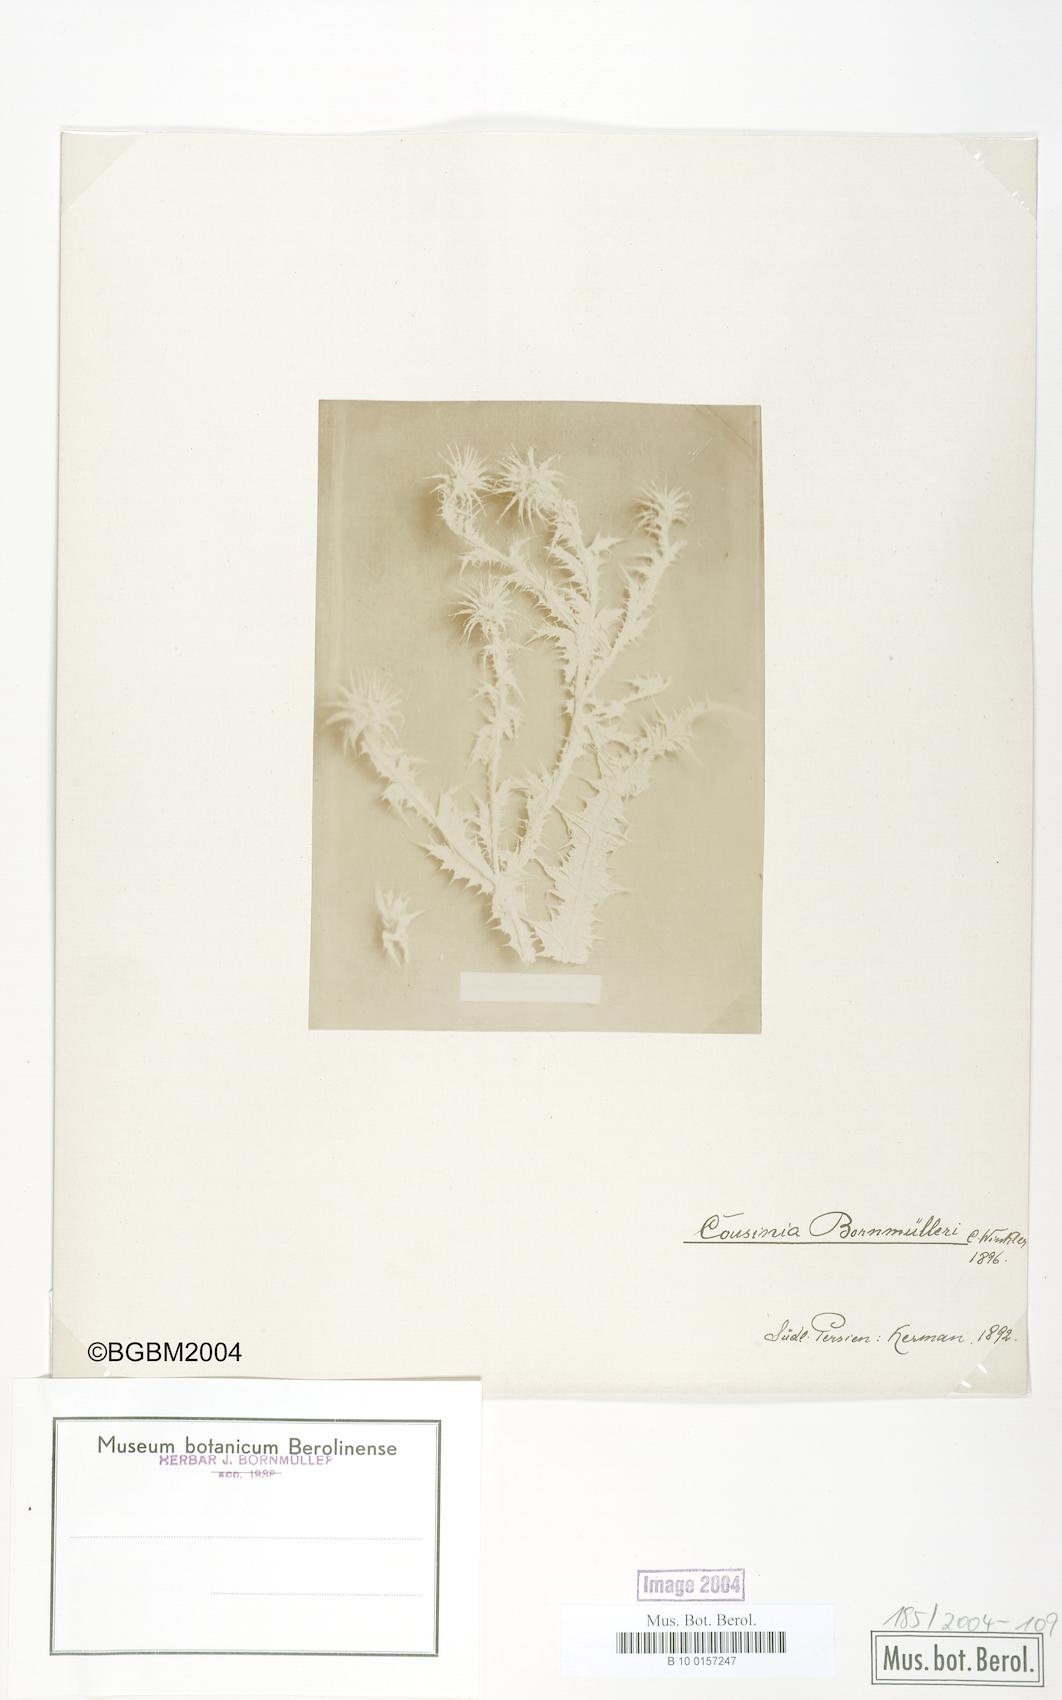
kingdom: Plantae
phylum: Tracheophyta
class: Magnoliopsida
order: Asterales
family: Asteraceae
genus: Cousinia
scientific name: Cousinia onopordioides
